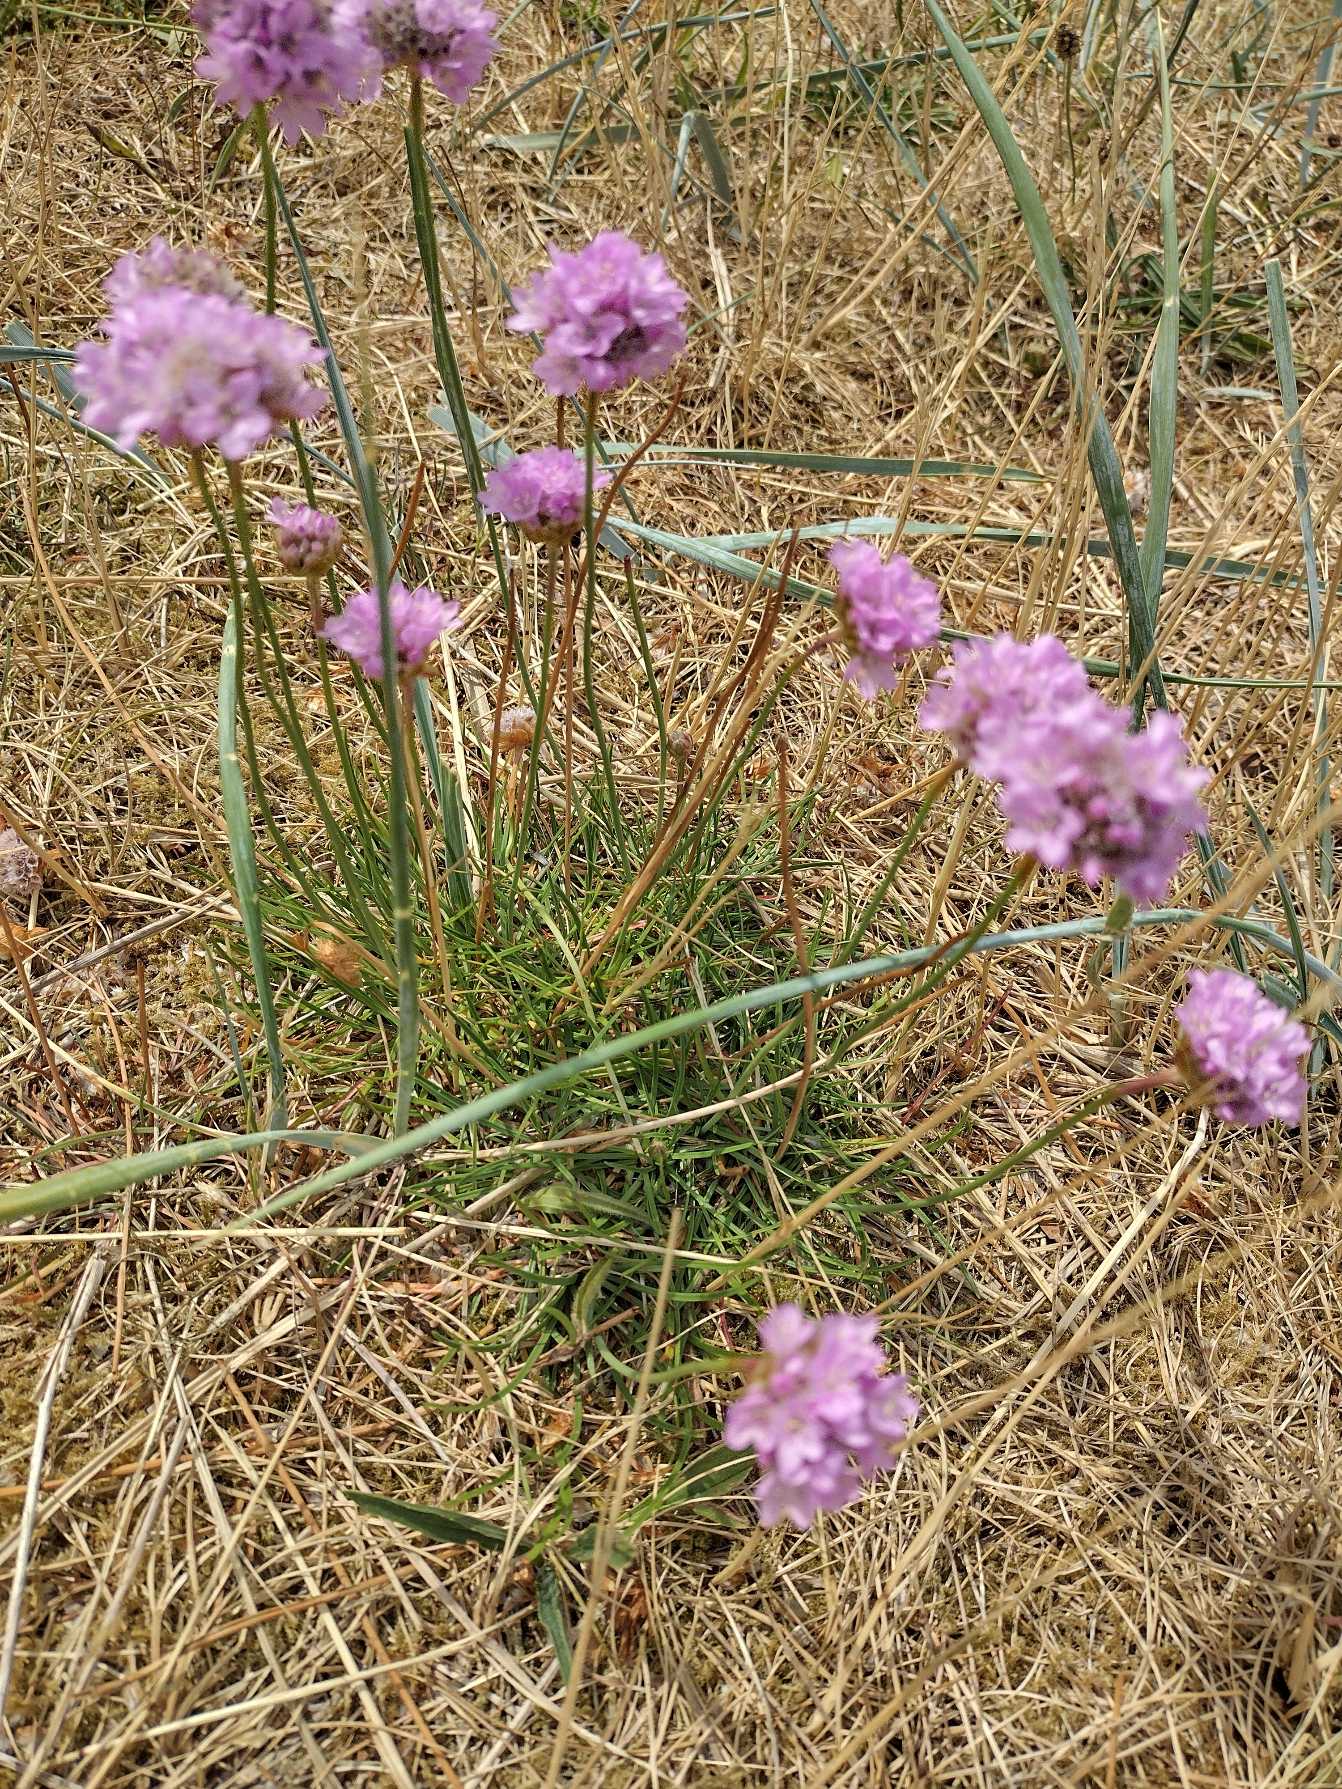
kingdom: Plantae
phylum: Tracheophyta
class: Magnoliopsida
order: Caryophyllales
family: Plumbaginaceae
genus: Armeria
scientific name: Armeria maritima
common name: Engelskgræs
